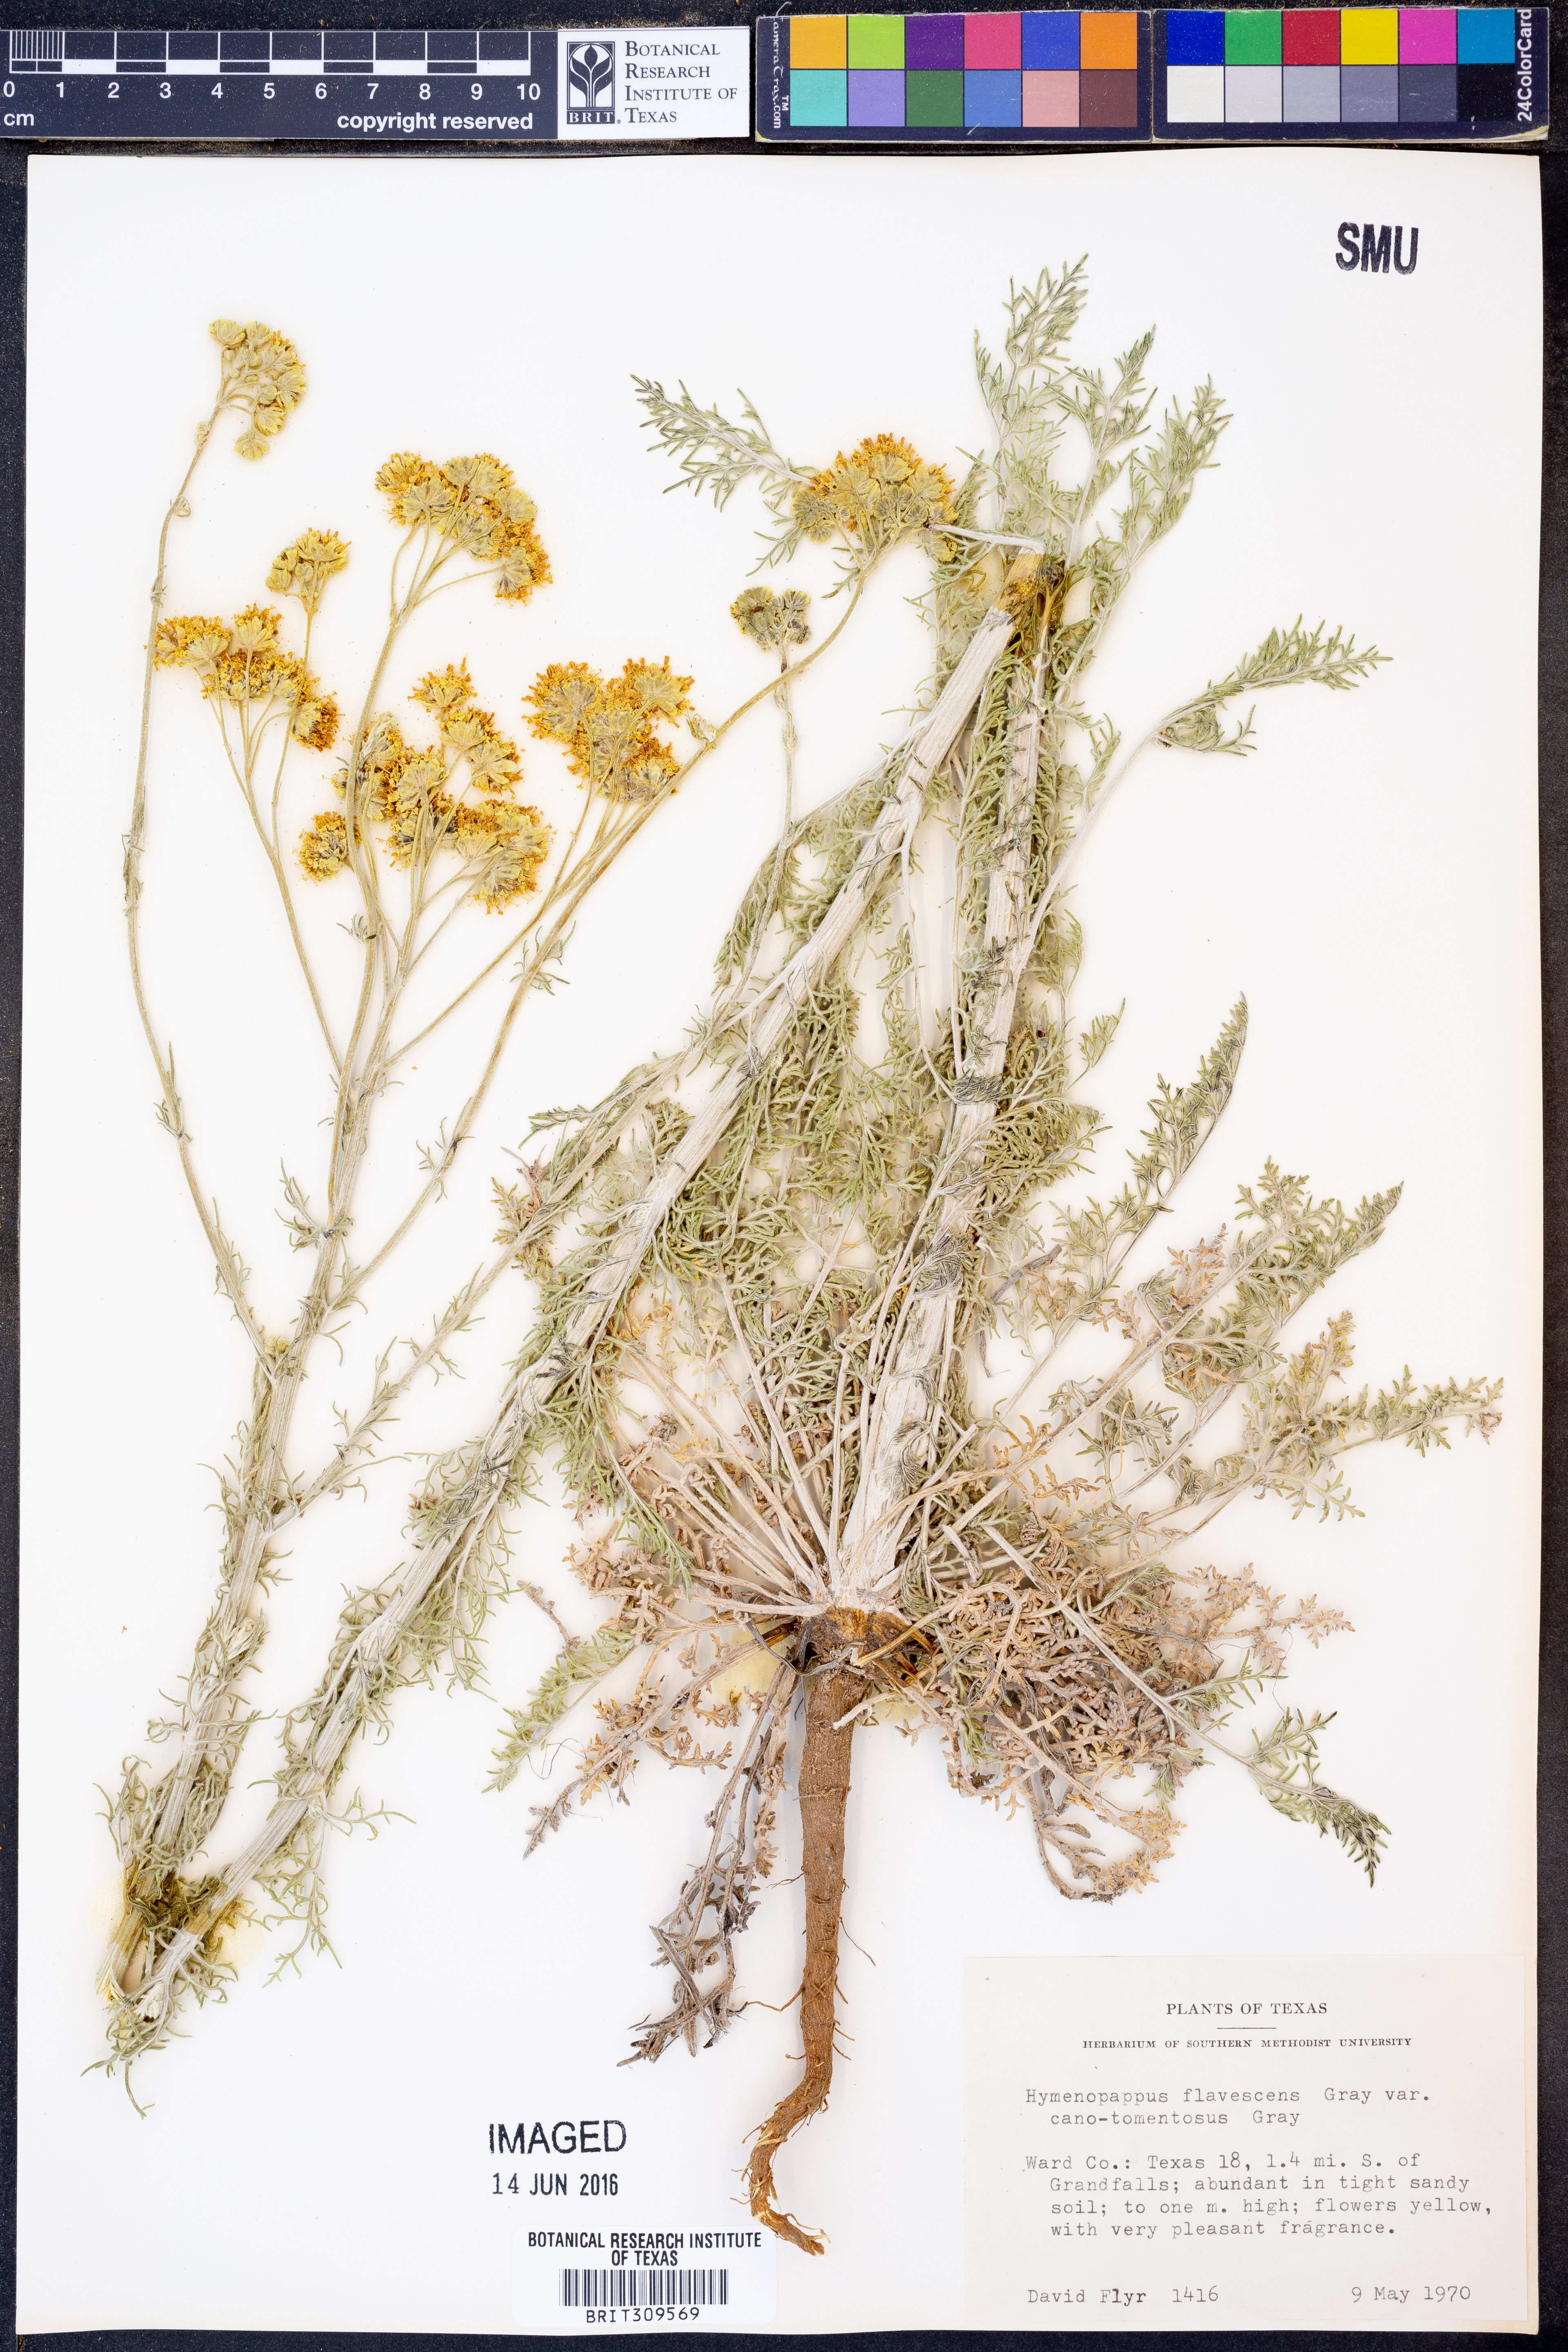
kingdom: Plantae
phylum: Tracheophyta
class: Magnoliopsida
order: Asterales
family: Asteraceae
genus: Hymenopappus
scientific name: Hymenopappus flavescens
